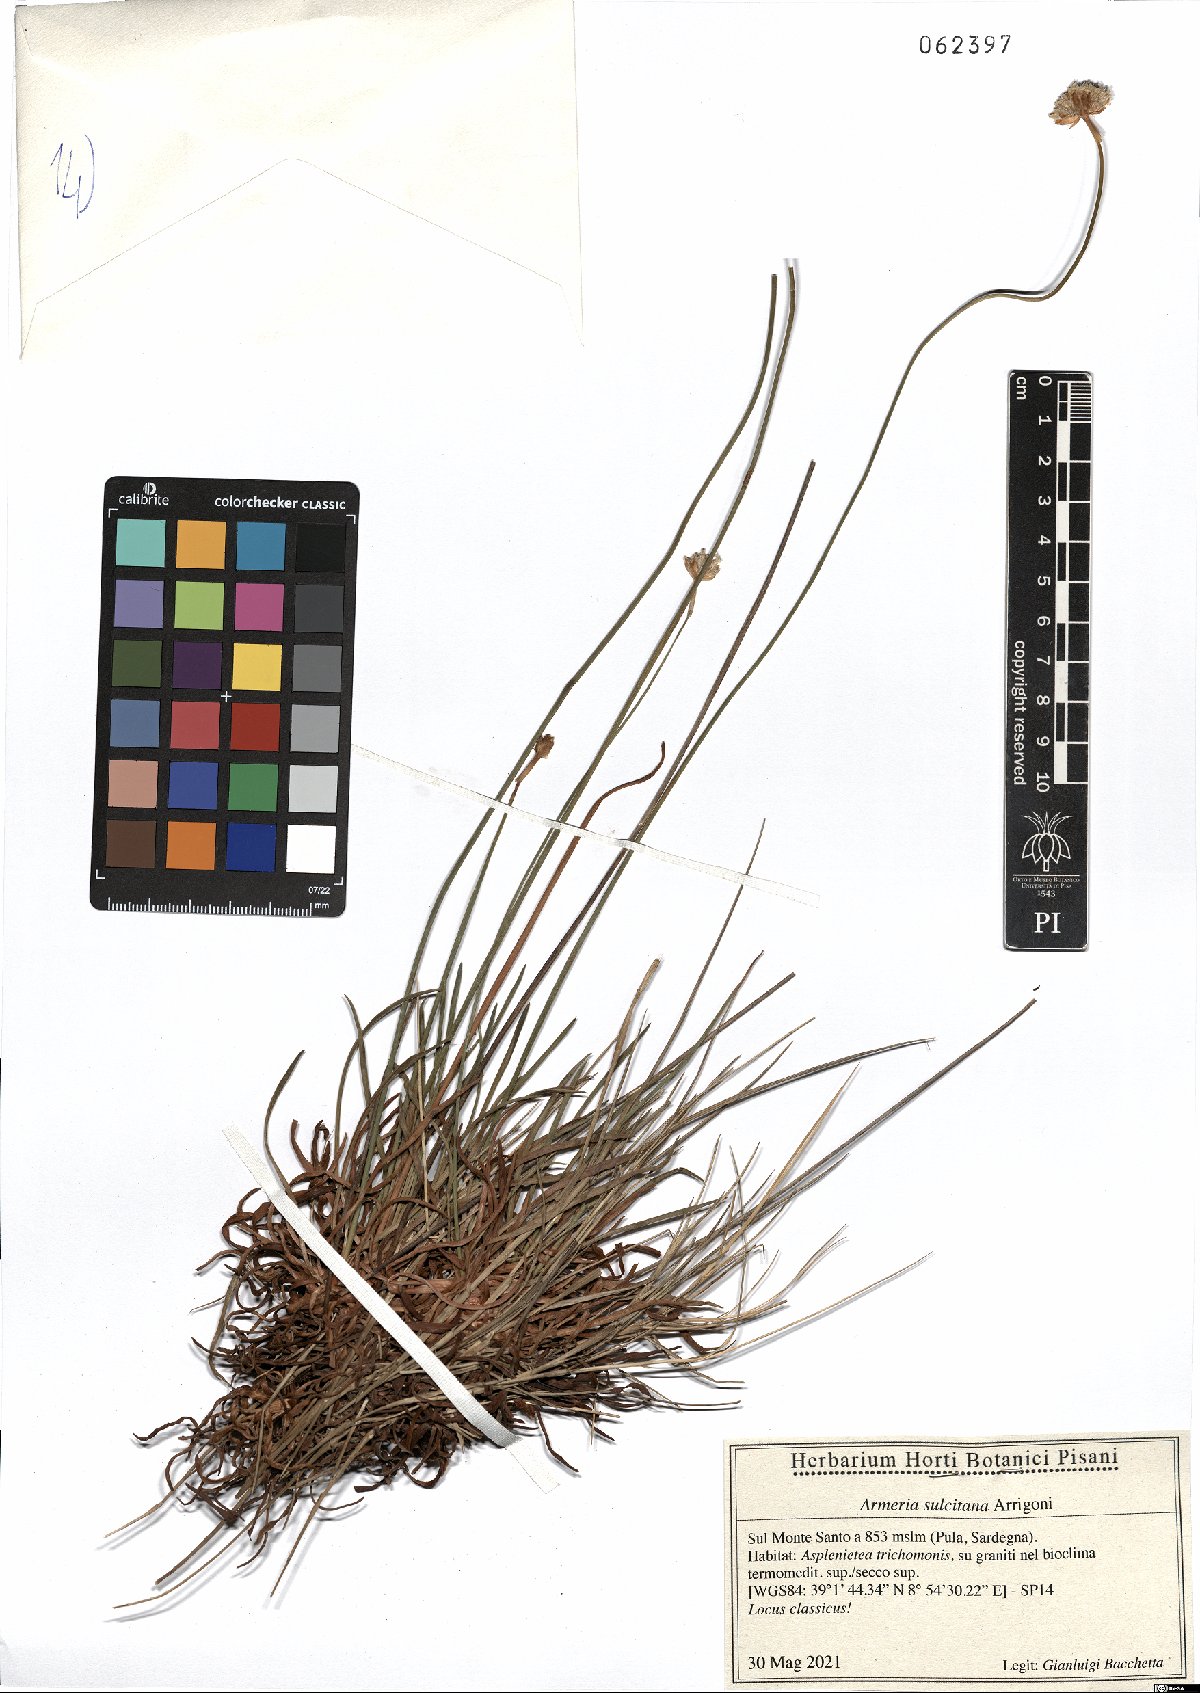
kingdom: Plantae
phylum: Tracheophyta
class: Magnoliopsida
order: Caryophyllales
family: Plumbaginaceae
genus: Armeria
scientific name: Armeria sulcitana
